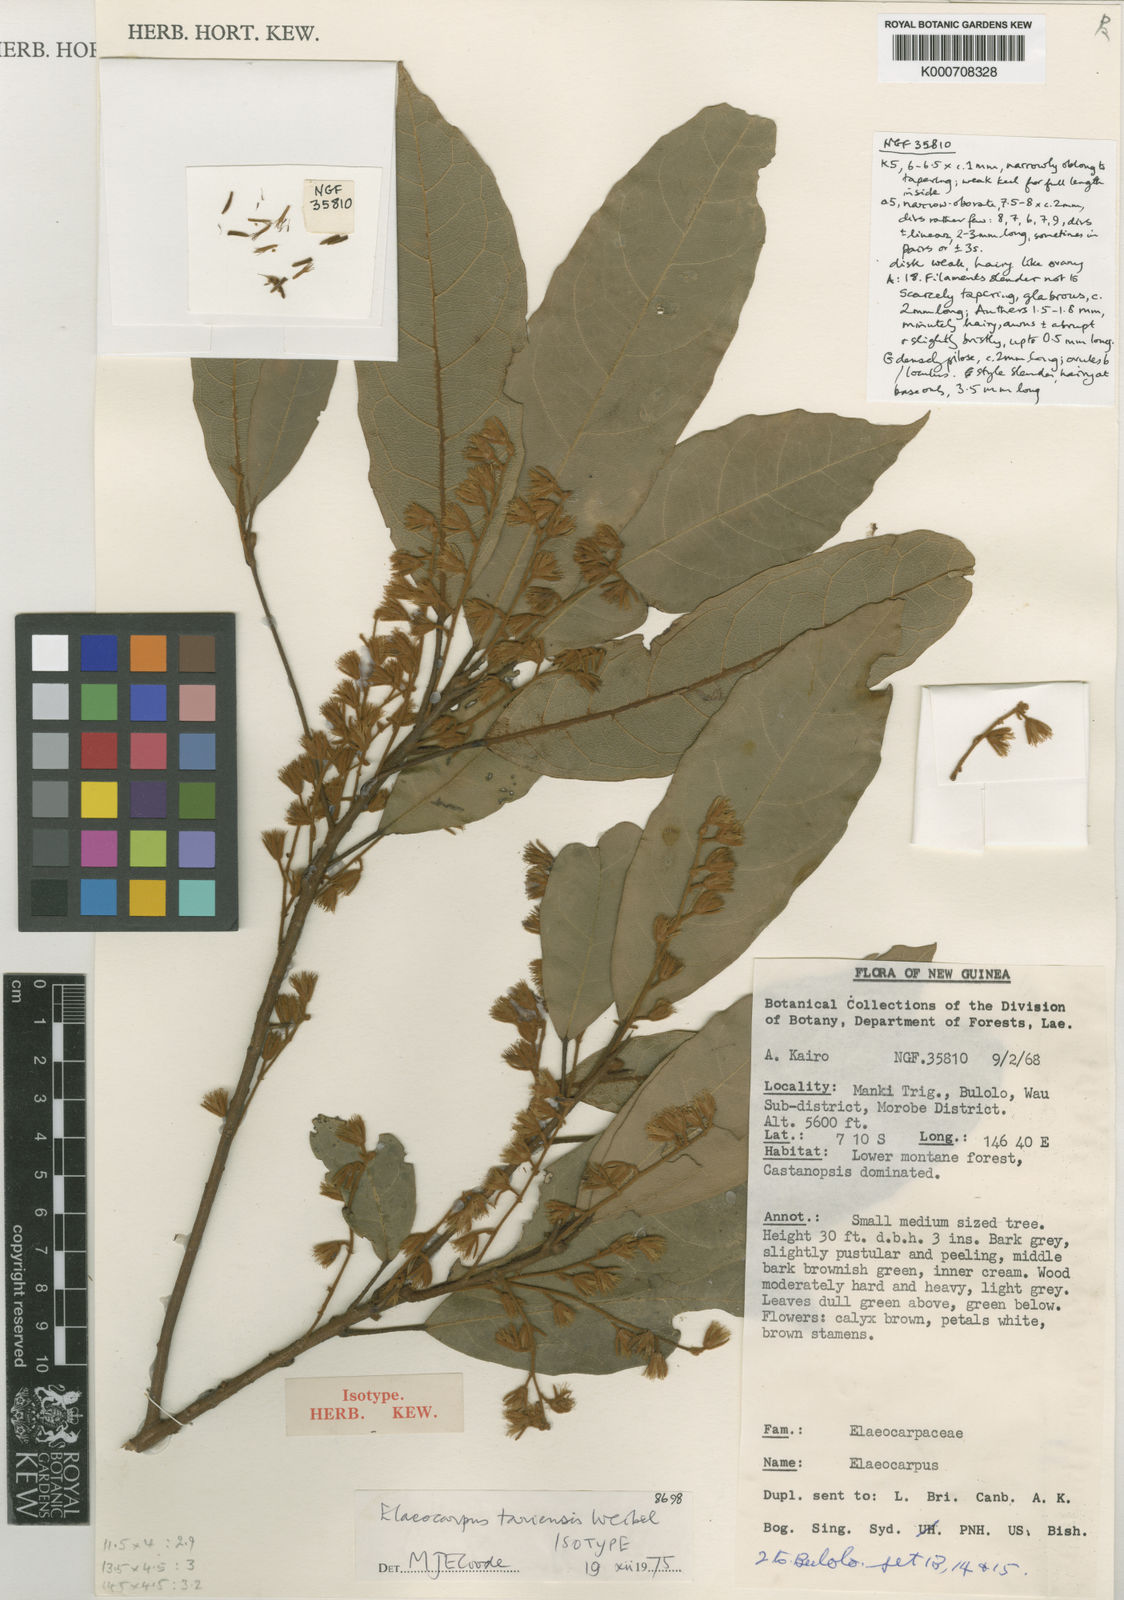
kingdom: Plantae
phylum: Tracheophyta
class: Magnoliopsida
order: Oxalidales
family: Elaeocarpaceae
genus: Elaeocarpus
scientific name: Elaeocarpus tariensis
